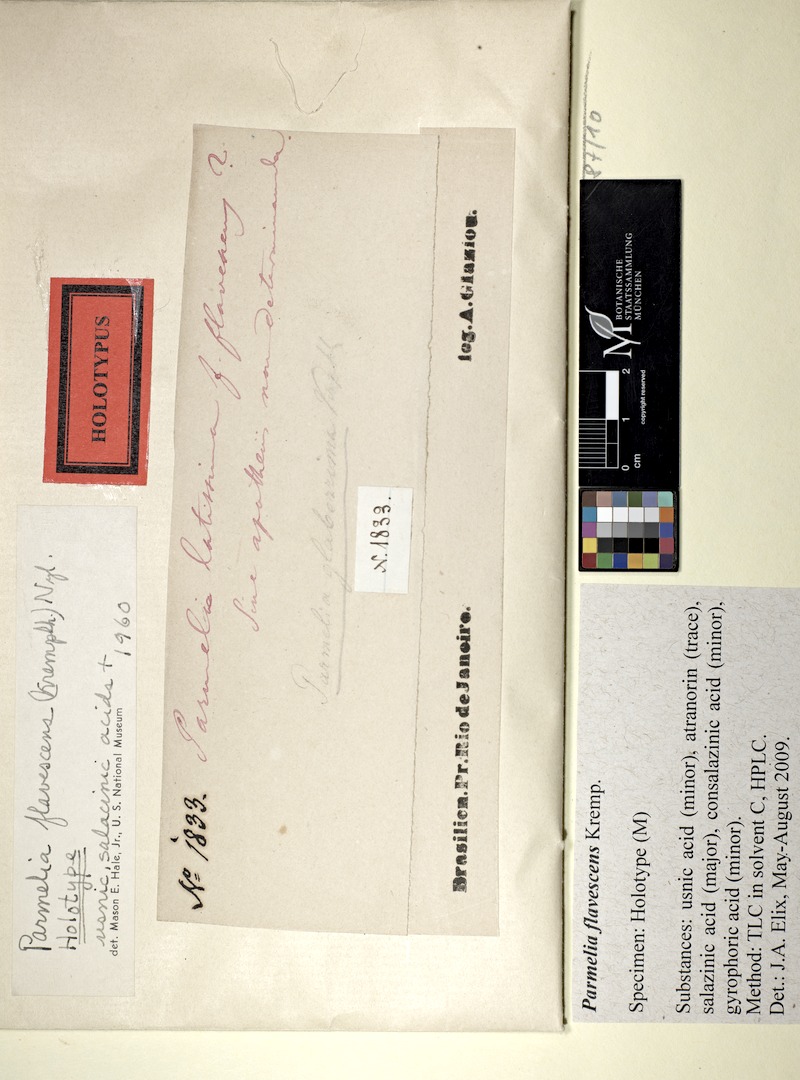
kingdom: Fungi
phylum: Ascomycota
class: Lecanoromycetes
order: Lecanorales
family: Parmeliaceae
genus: Parmotrema
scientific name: Parmotrema flavescens
